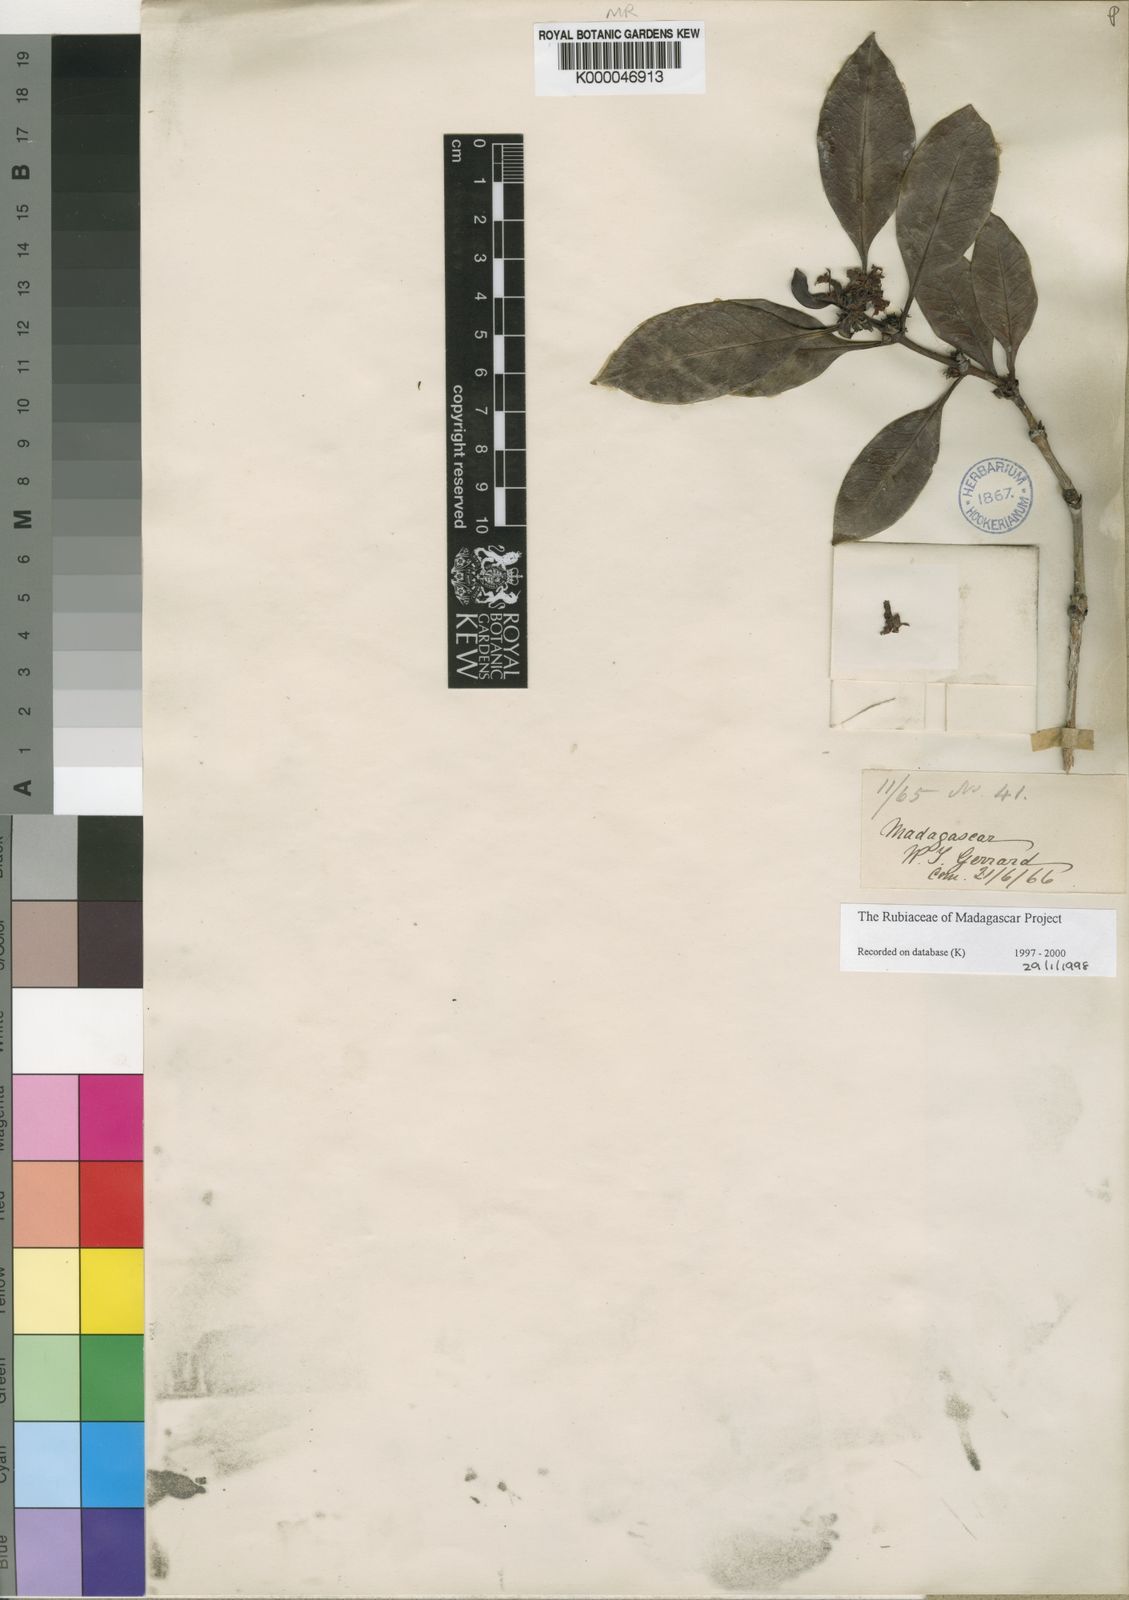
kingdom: Plantae
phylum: Tracheophyta
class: Magnoliopsida
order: Gentianales
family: Rubiaceae
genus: Chapelieria
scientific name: Chapelieria madagascariensis
